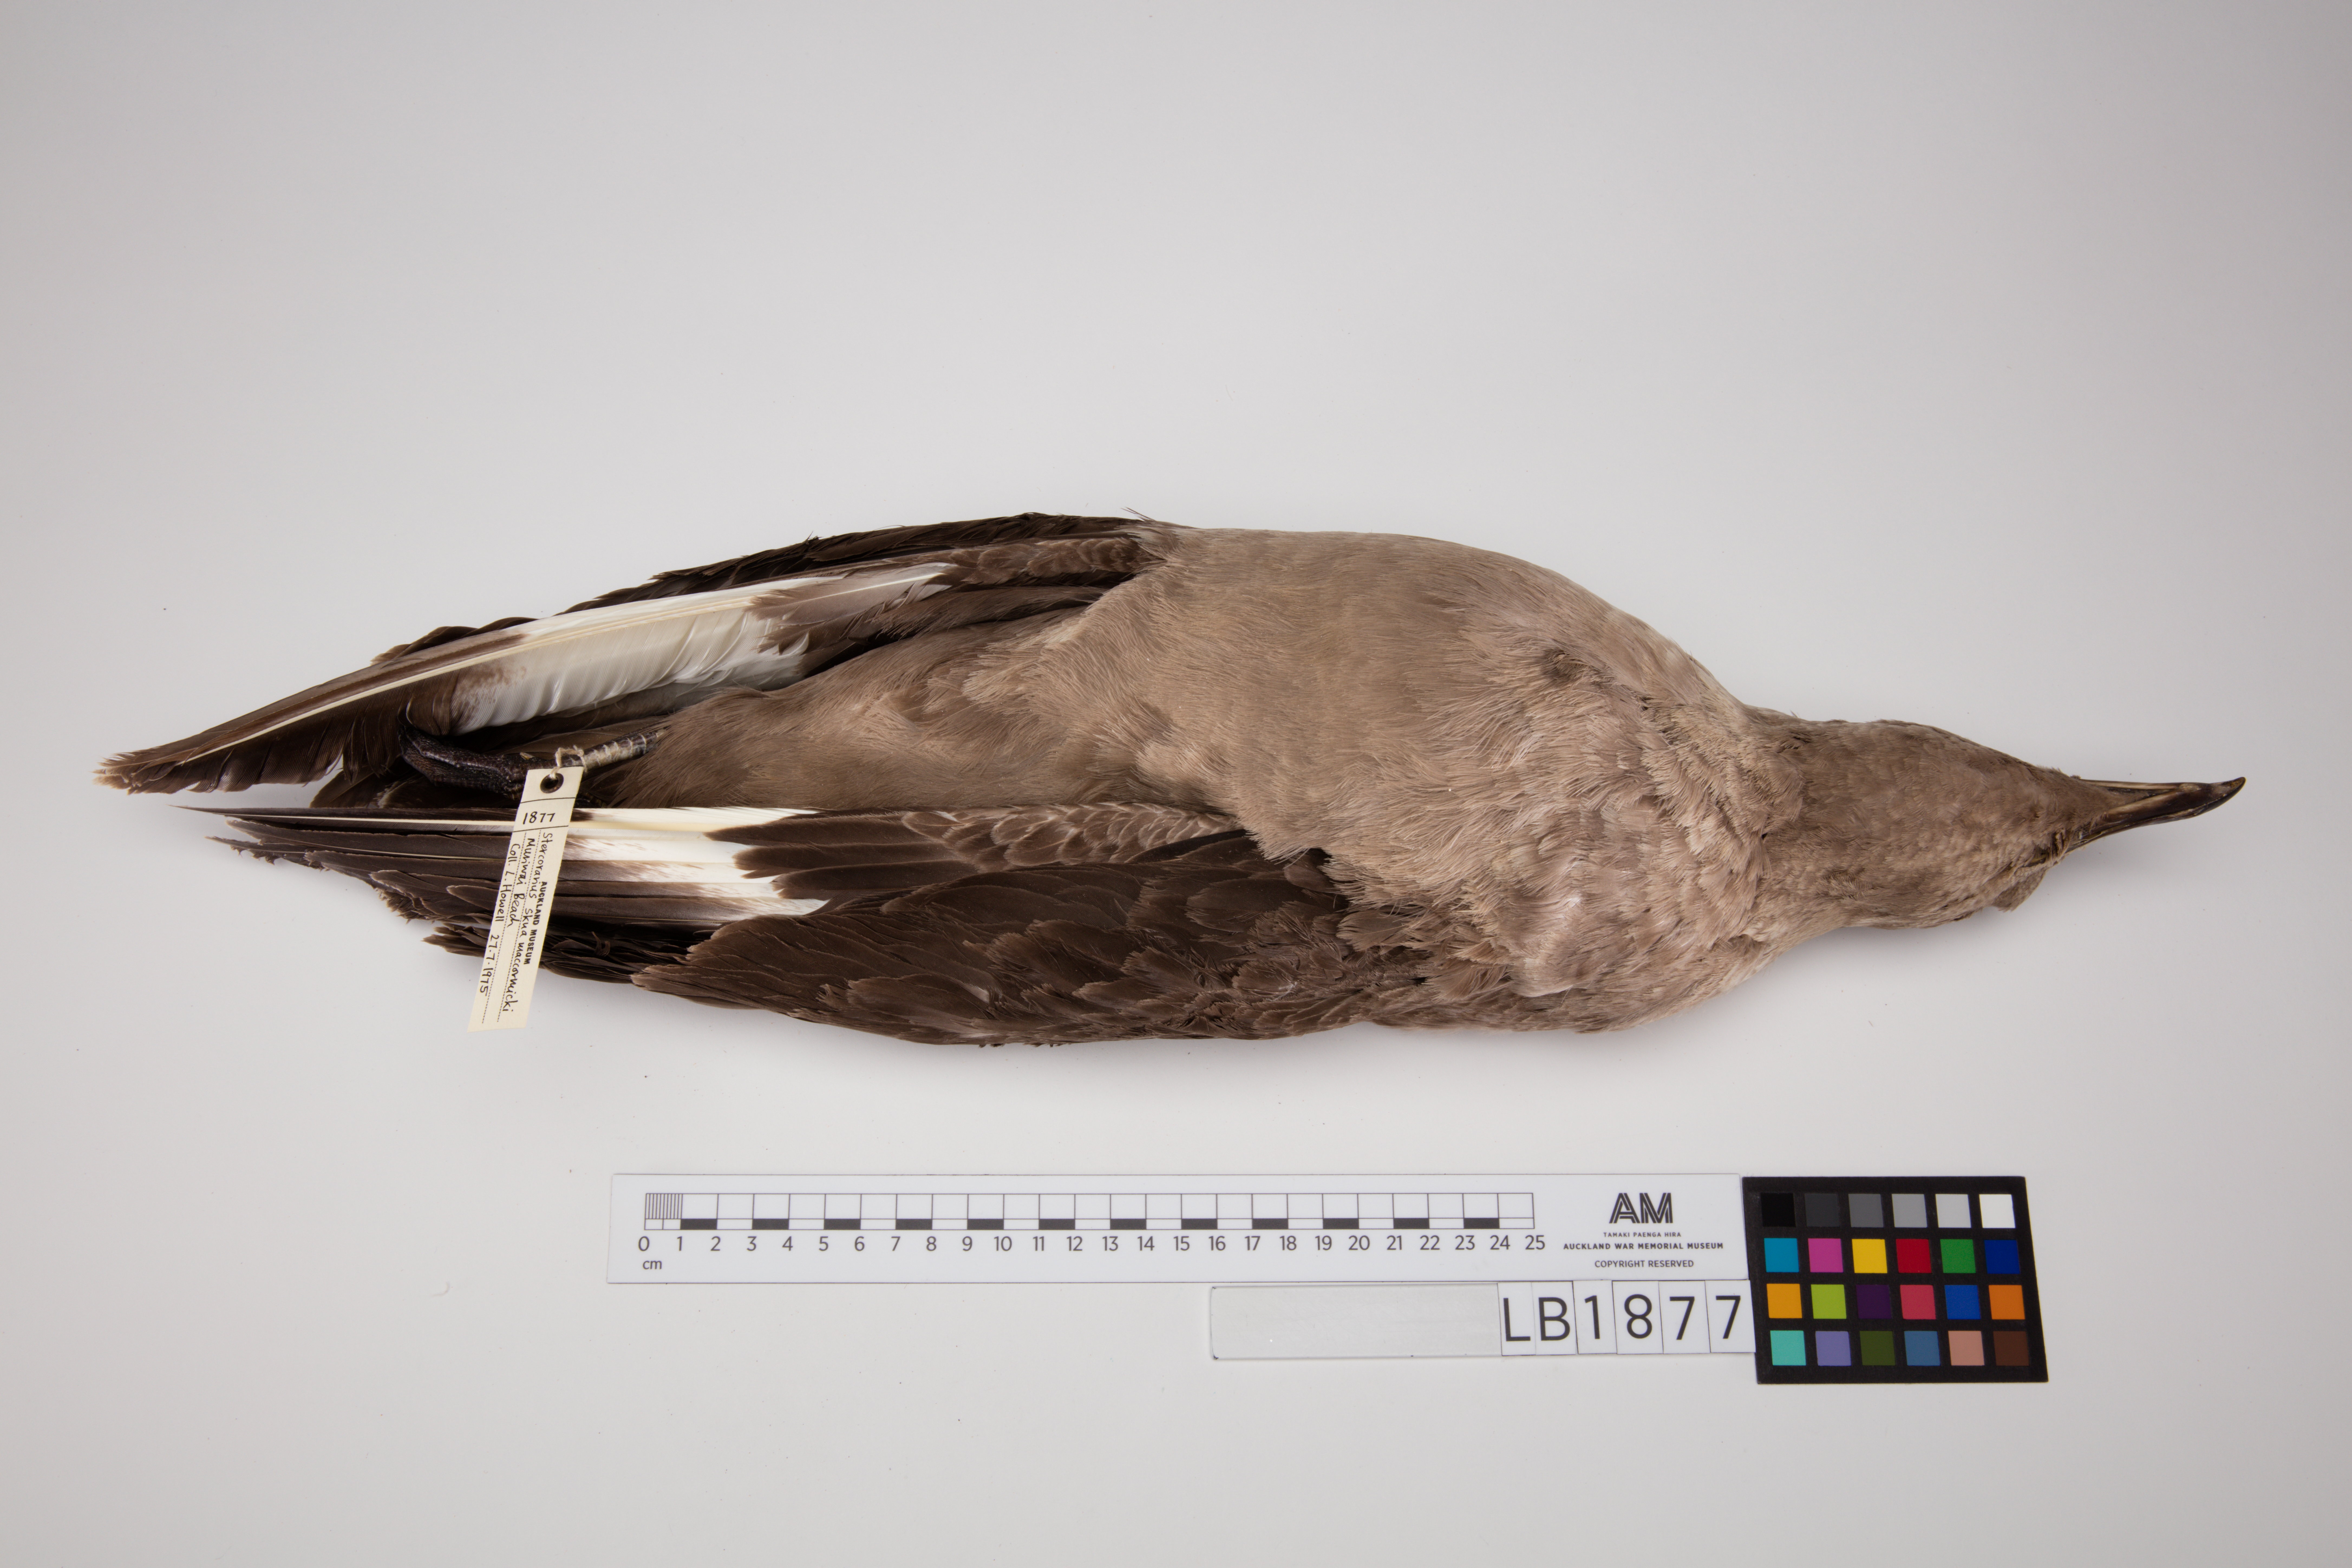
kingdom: Animalia
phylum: Chordata
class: Aves
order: Charadriiformes
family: Stercorariidae
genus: Stercorarius
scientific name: Stercorarius maccormicki
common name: South polar skua
